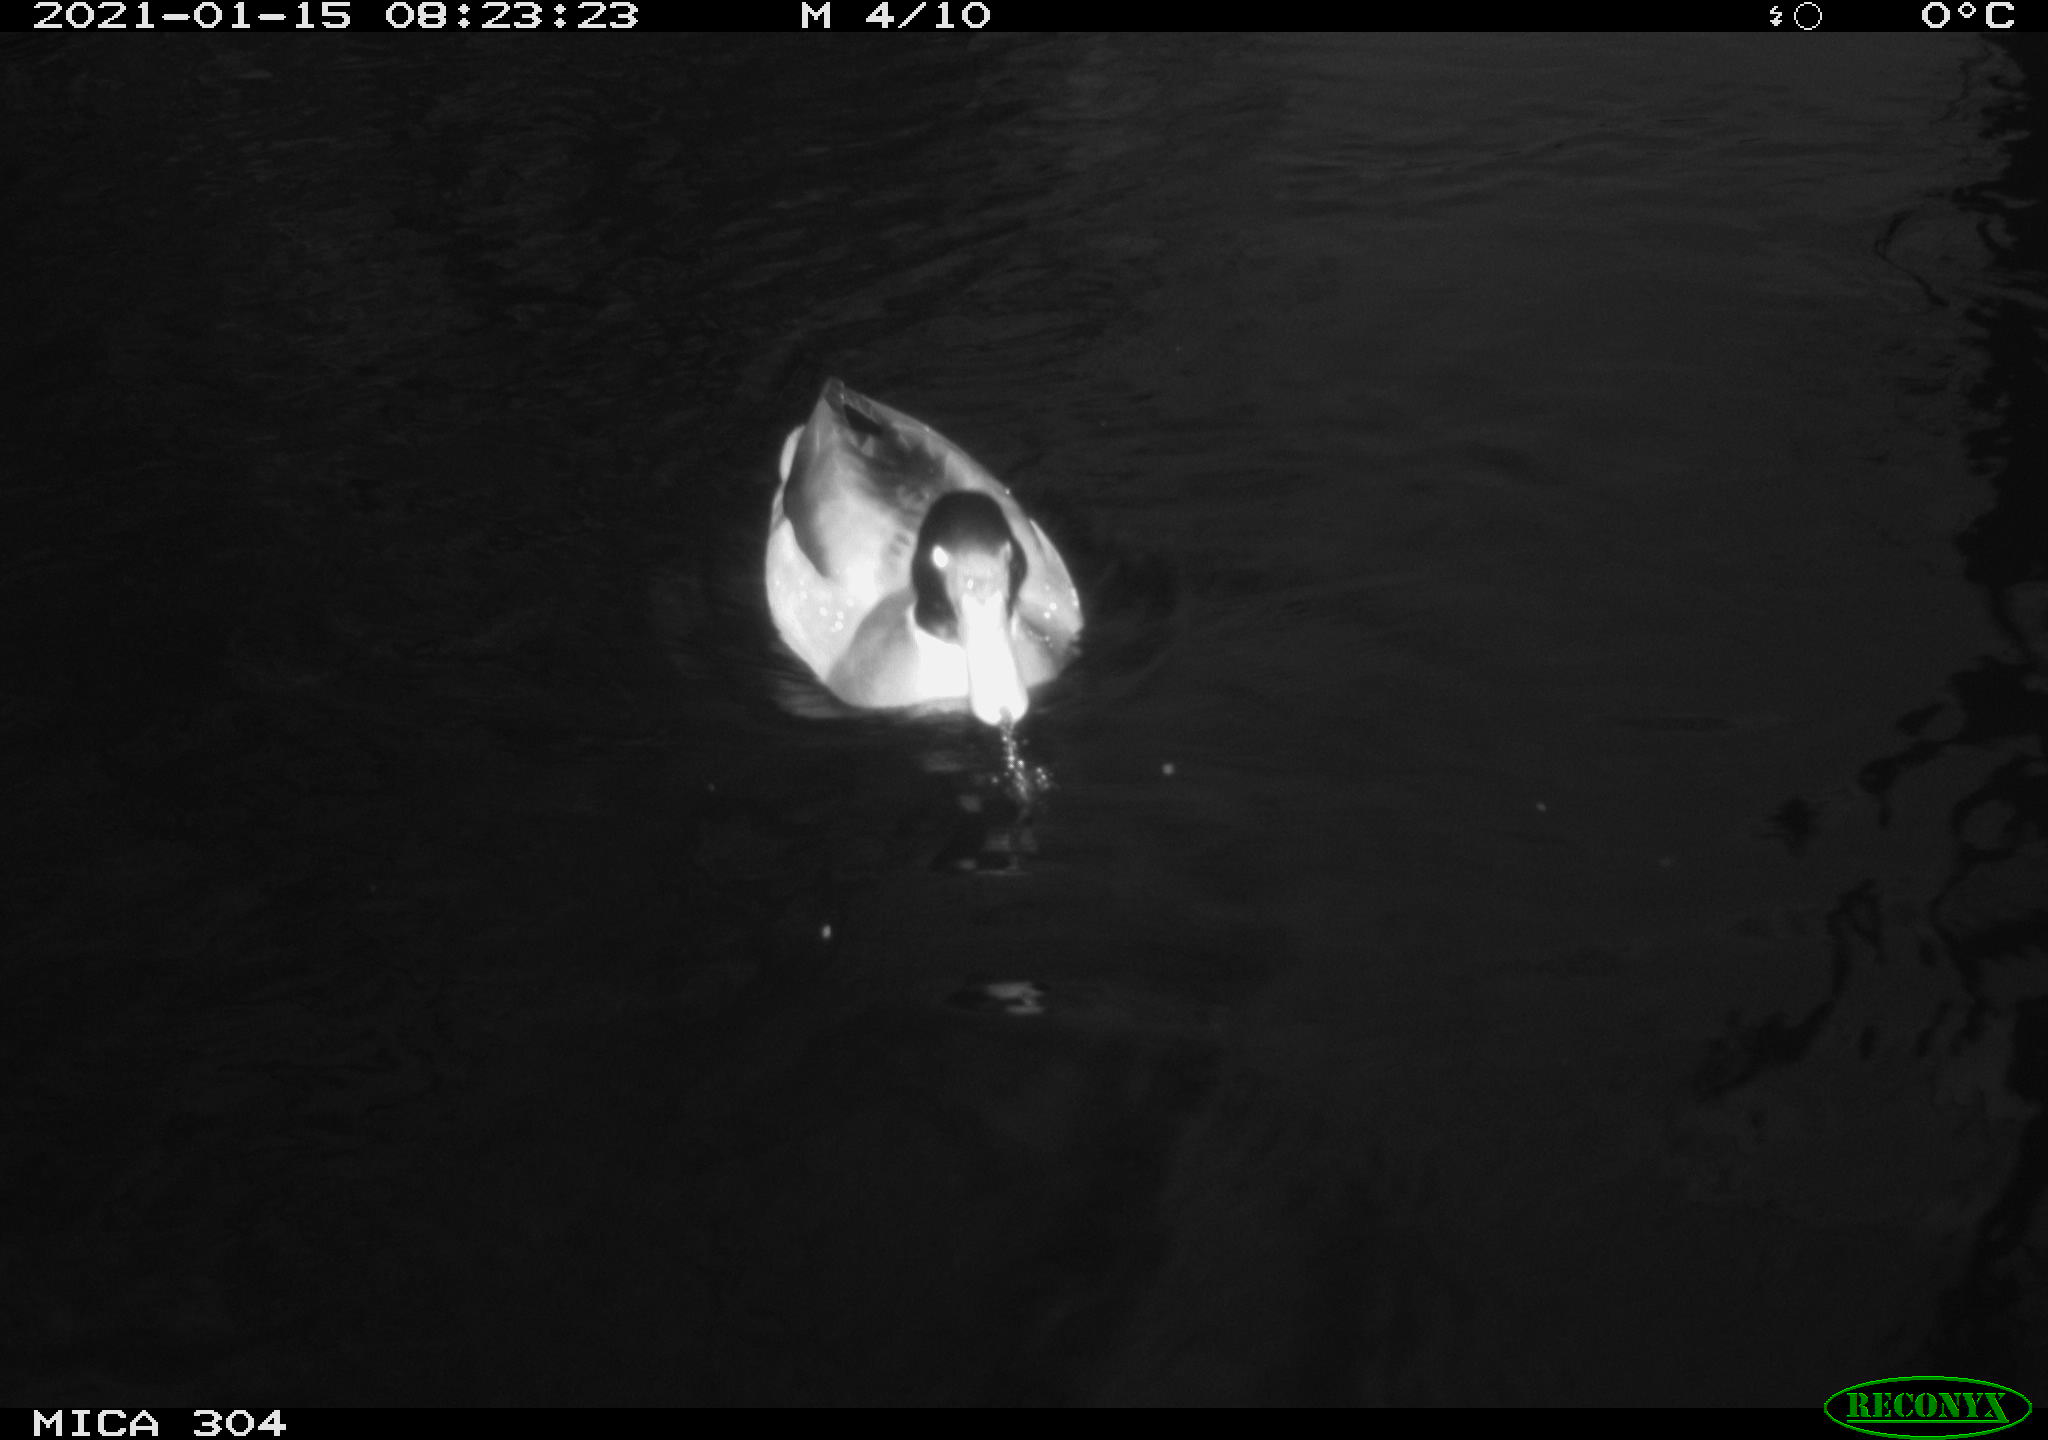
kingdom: Animalia
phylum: Chordata
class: Aves
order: Anseriformes
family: Anatidae
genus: Anas
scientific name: Anas platyrhynchos
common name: Mallard
